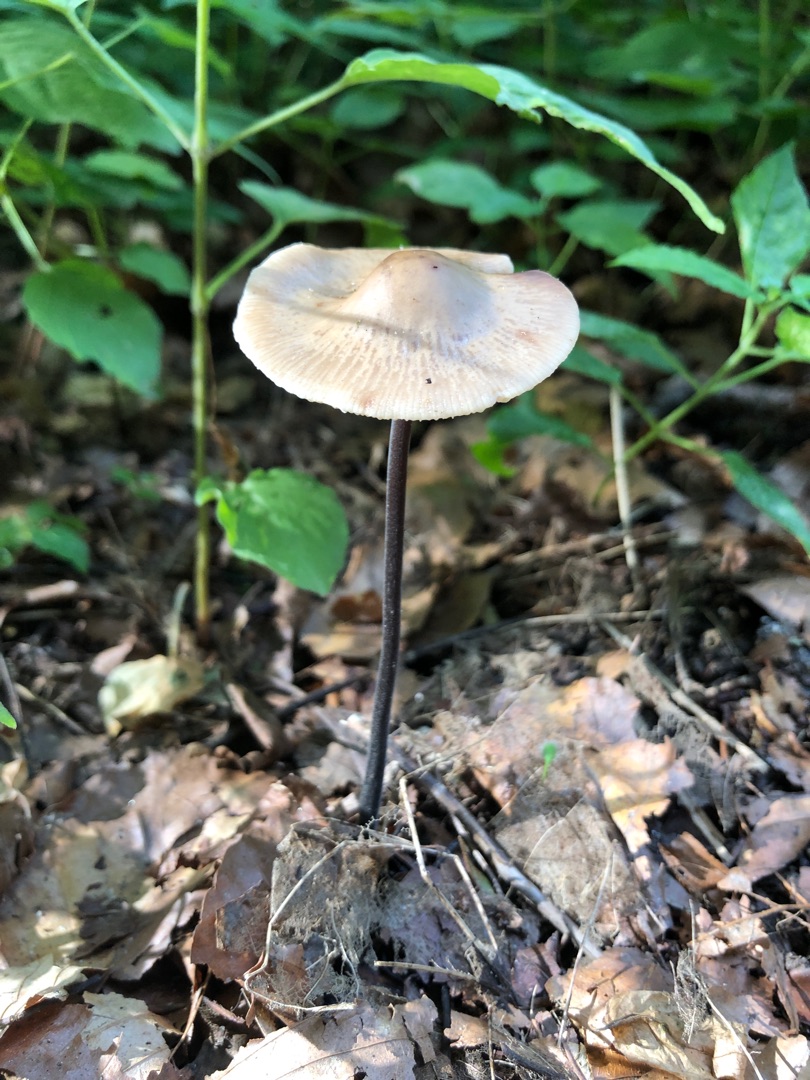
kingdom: Fungi
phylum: Basidiomycota
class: Agaricomycetes
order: Agaricales
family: Omphalotaceae
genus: Mycetinis
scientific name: Mycetinis alliaceus
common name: Stor løghat
